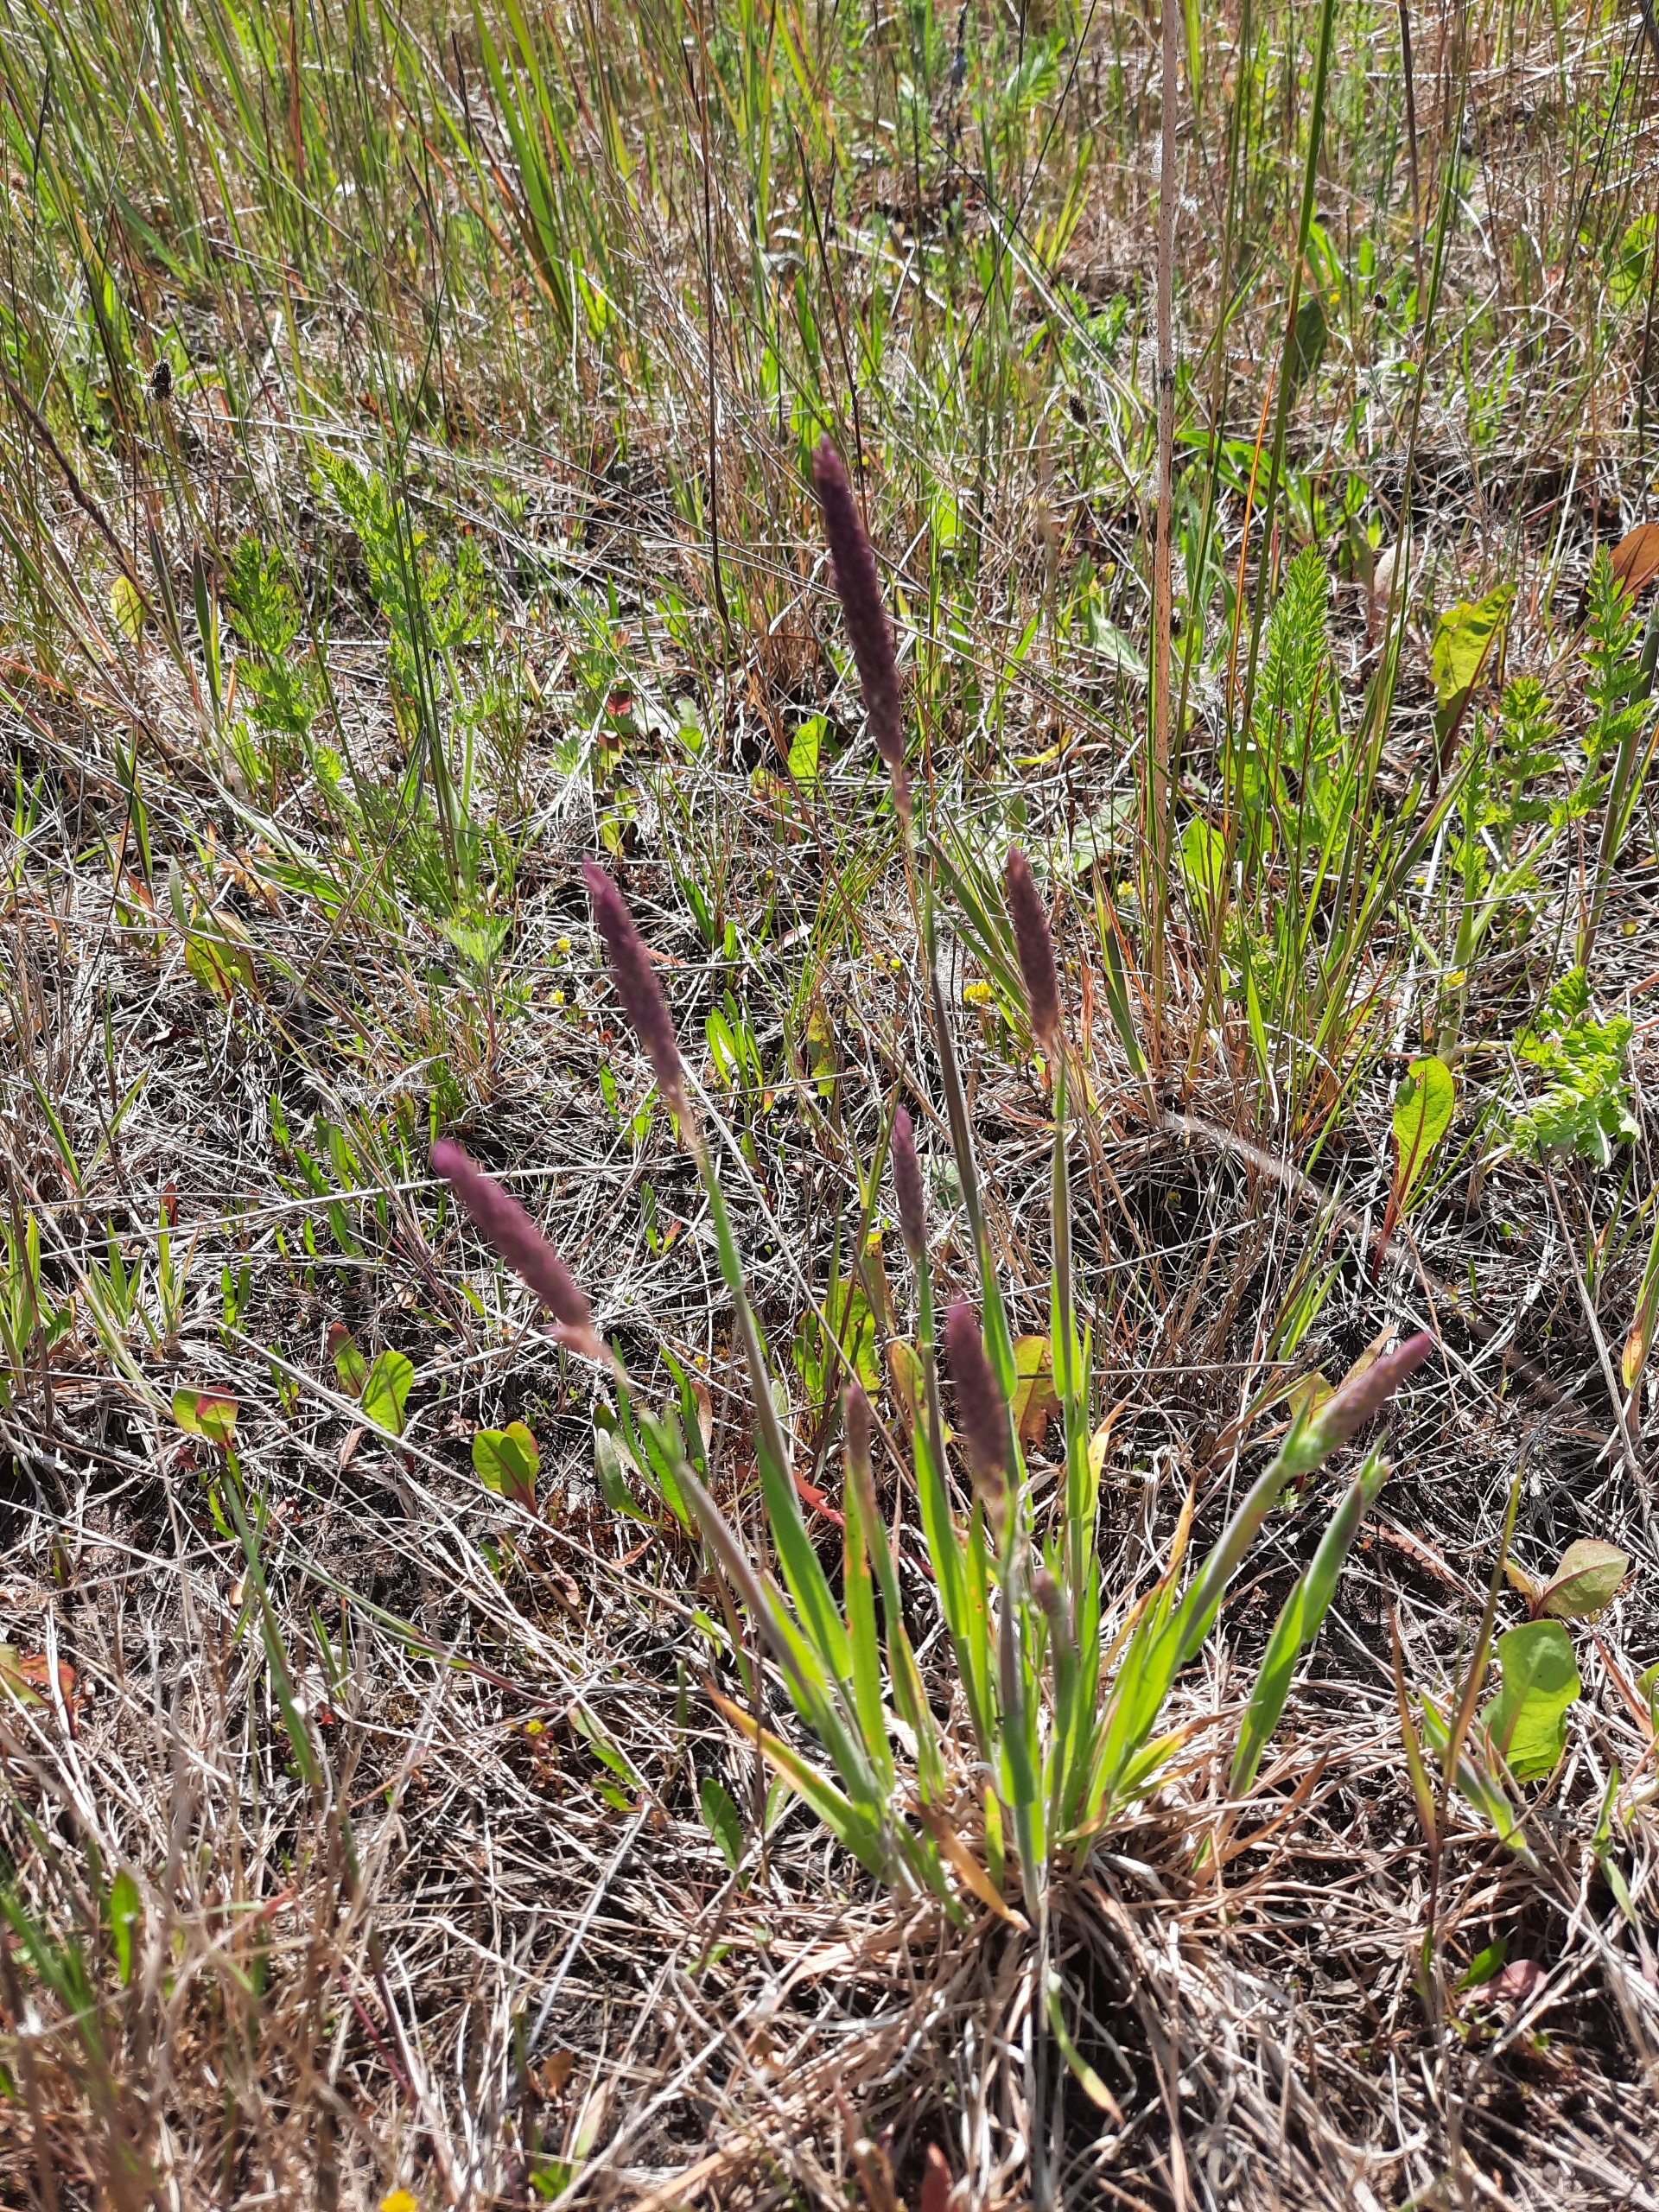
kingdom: Plantae
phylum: Tracheophyta
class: Liliopsida
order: Poales
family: Poaceae
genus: Holcus
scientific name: Holcus lanatus
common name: Fløjlsgræs
